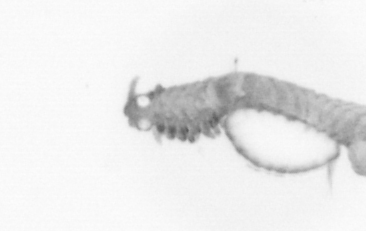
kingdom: Animalia
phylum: Annelida
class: Polychaeta
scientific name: Polychaeta
